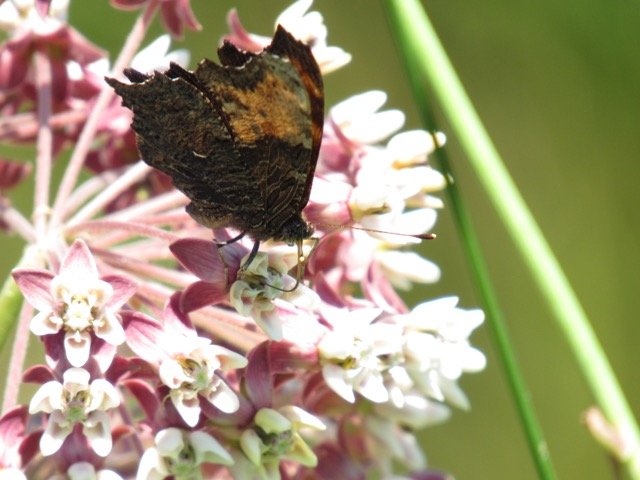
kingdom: Animalia
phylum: Arthropoda
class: Insecta
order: Lepidoptera
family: Nymphalidae
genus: Polygonia
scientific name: Polygonia progne
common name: Gray Comma
